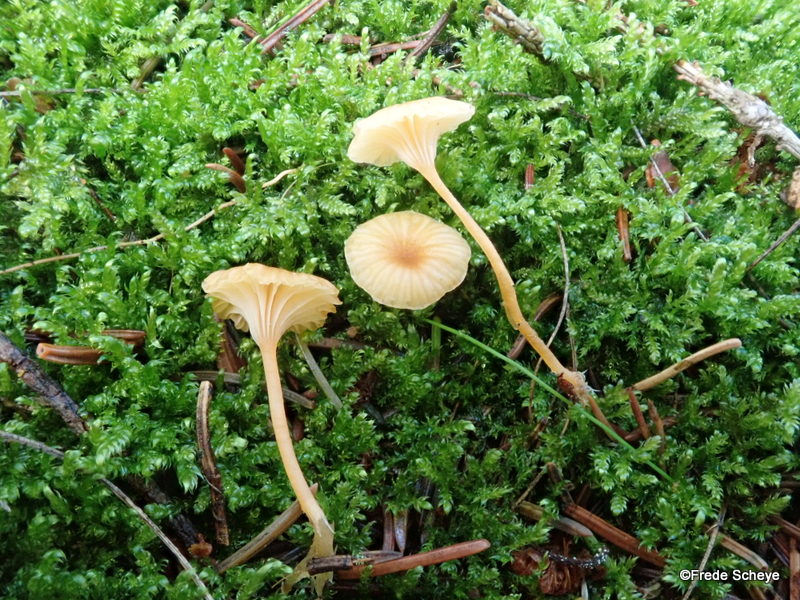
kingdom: Fungi
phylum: Basidiomycota
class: Agaricomycetes
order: Hymenochaetales
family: Rickenellaceae
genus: Rickenella
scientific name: Rickenella fibula
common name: orange mosnavlehat
